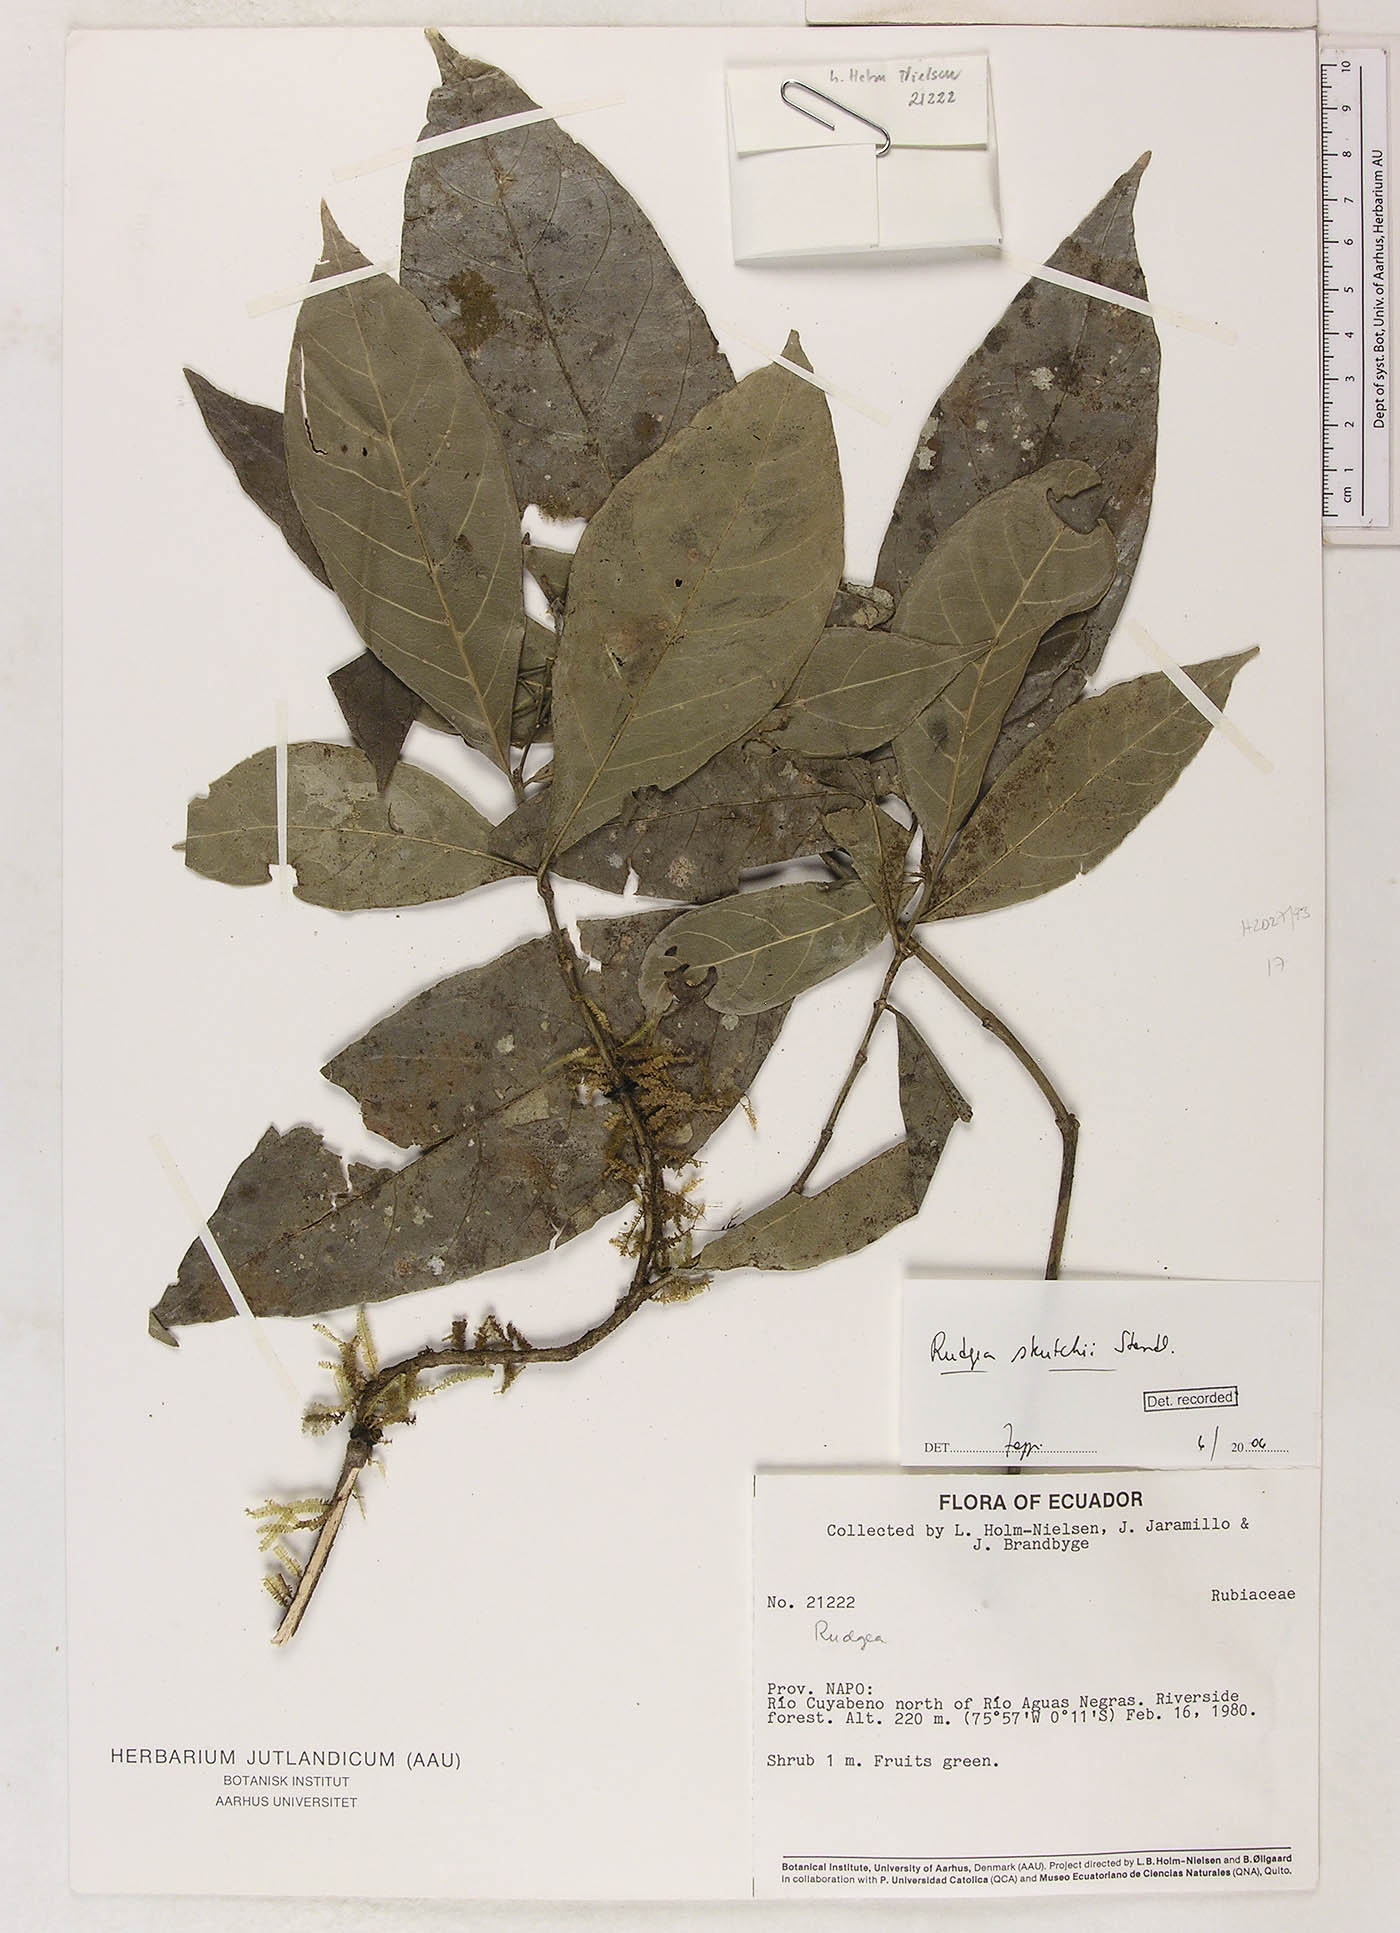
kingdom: Plantae
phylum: Tracheophyta
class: Magnoliopsida
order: Gentianales
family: Rubiaceae
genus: Rudgea
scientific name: Rudgea skutchii
